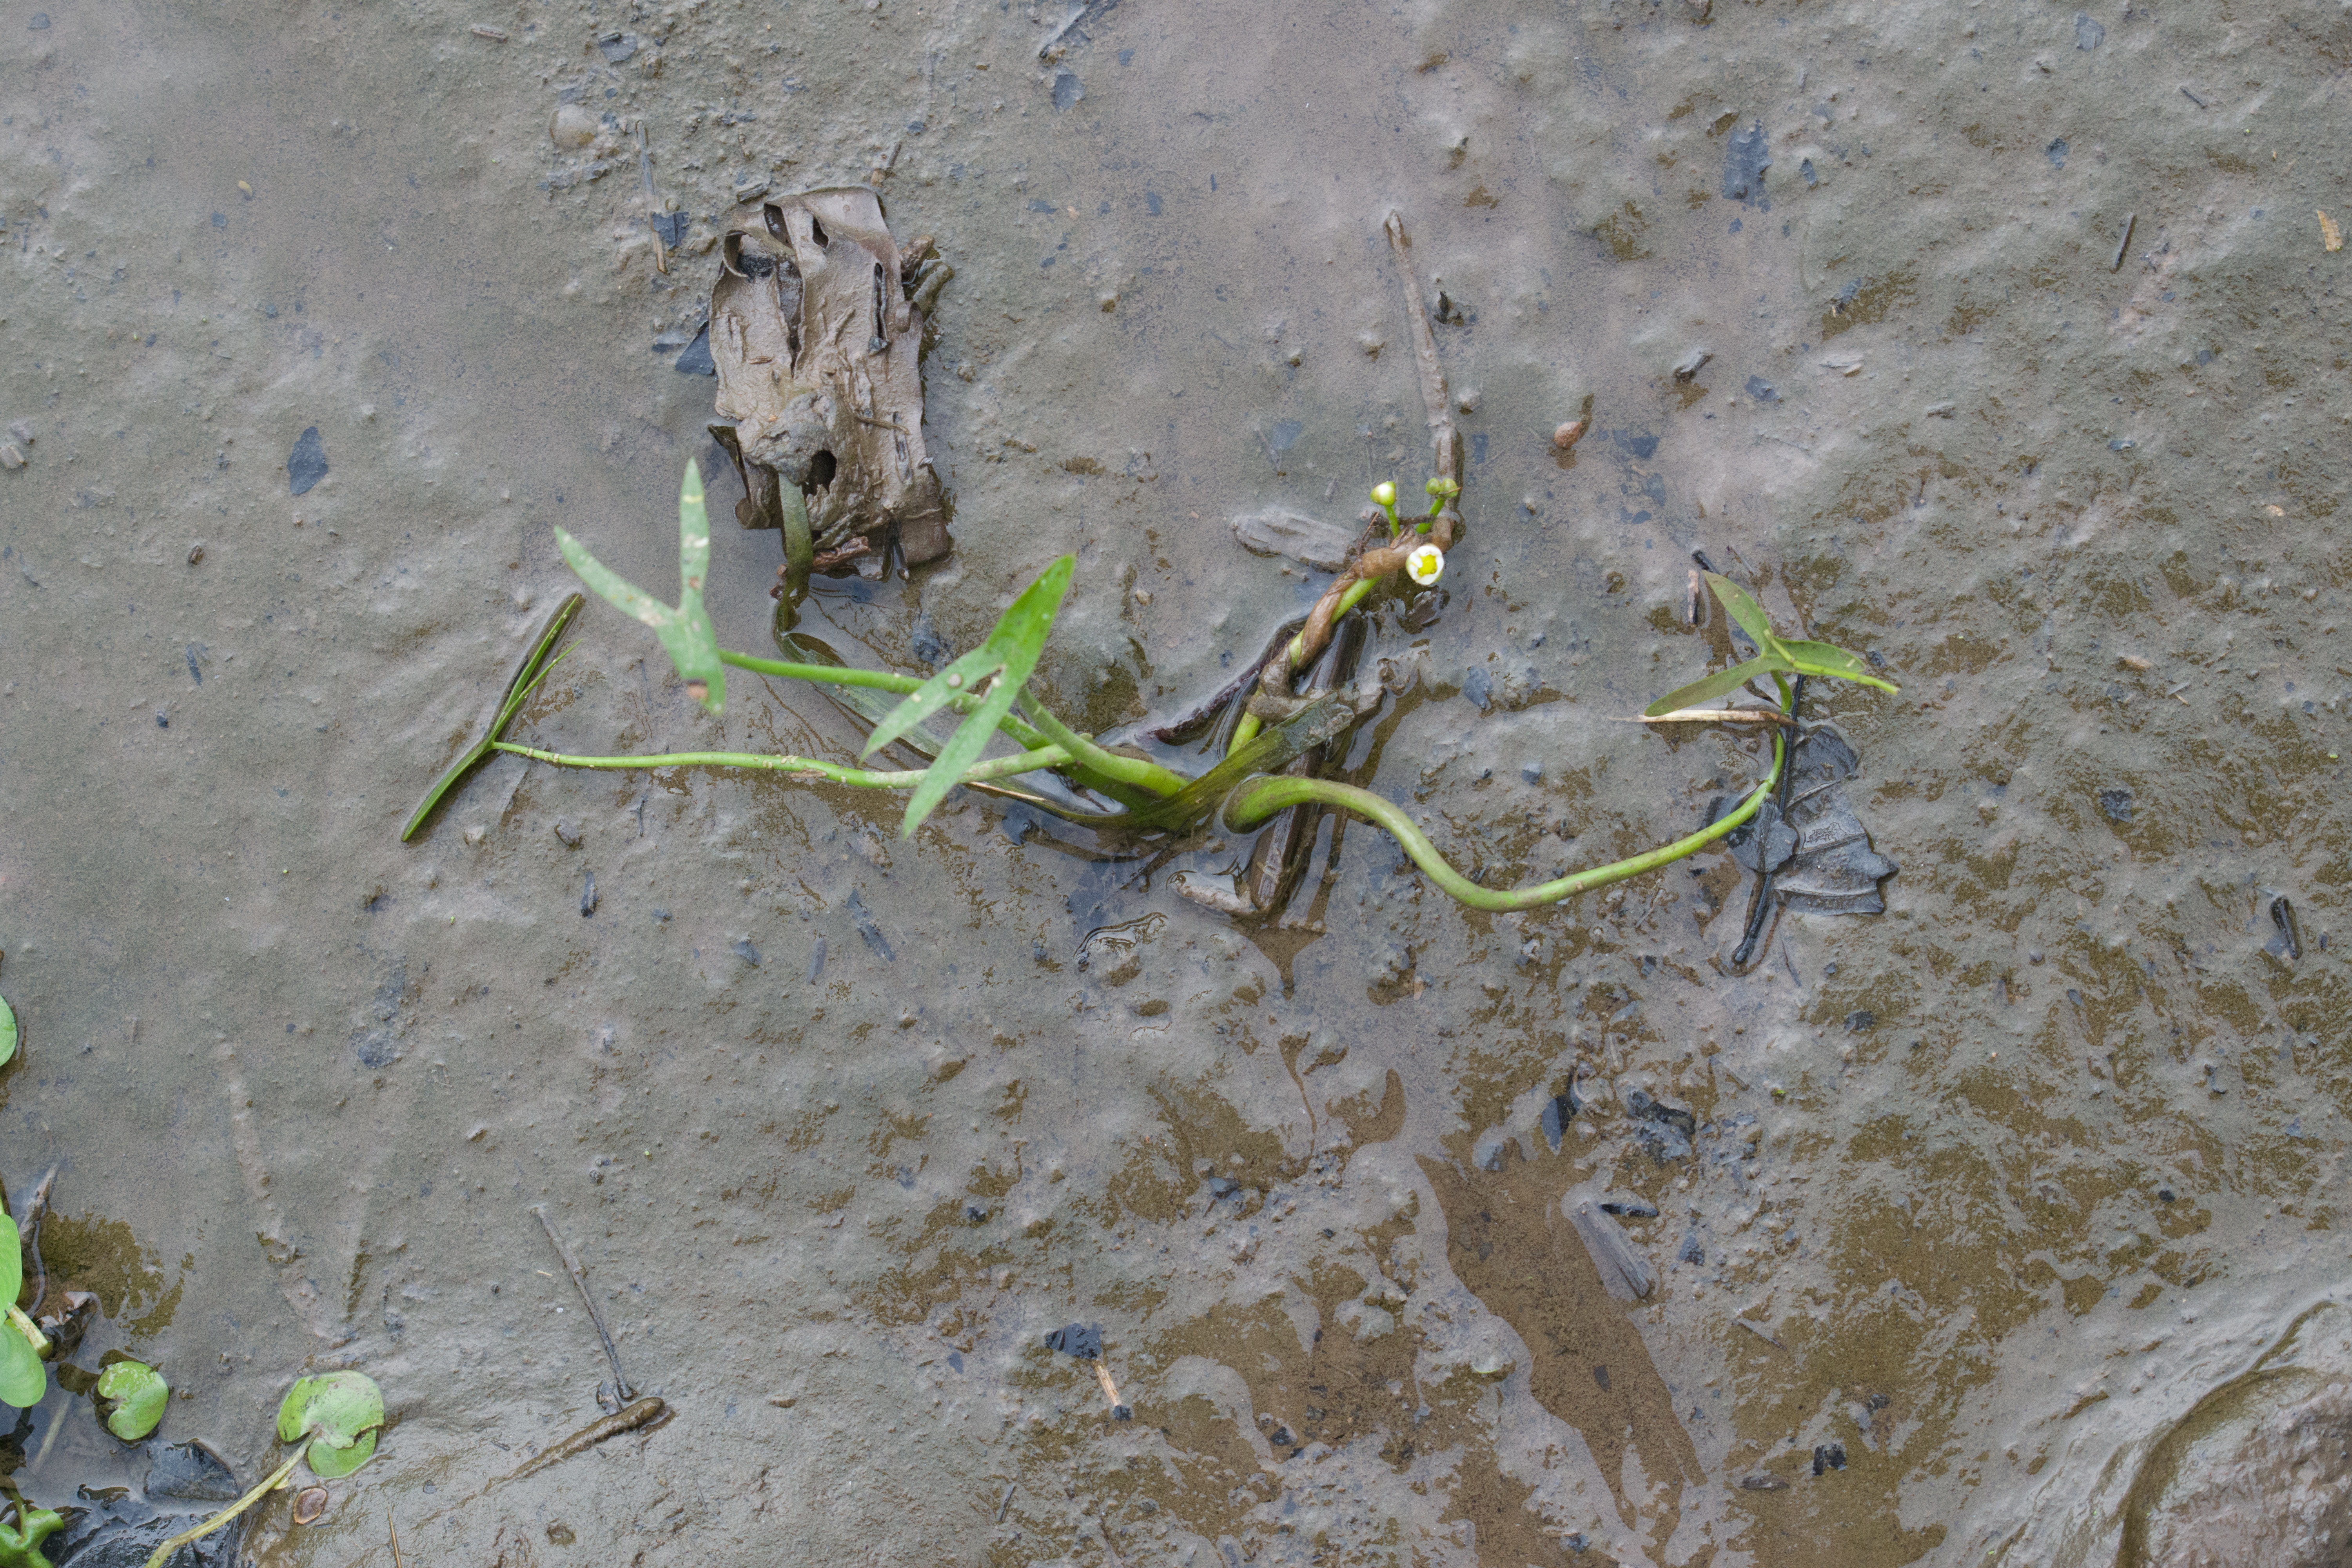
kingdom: Plantae
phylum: Tracheophyta
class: Liliopsida
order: Alismatales
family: Alismataceae
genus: Sagittaria
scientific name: Sagittaria calycina
